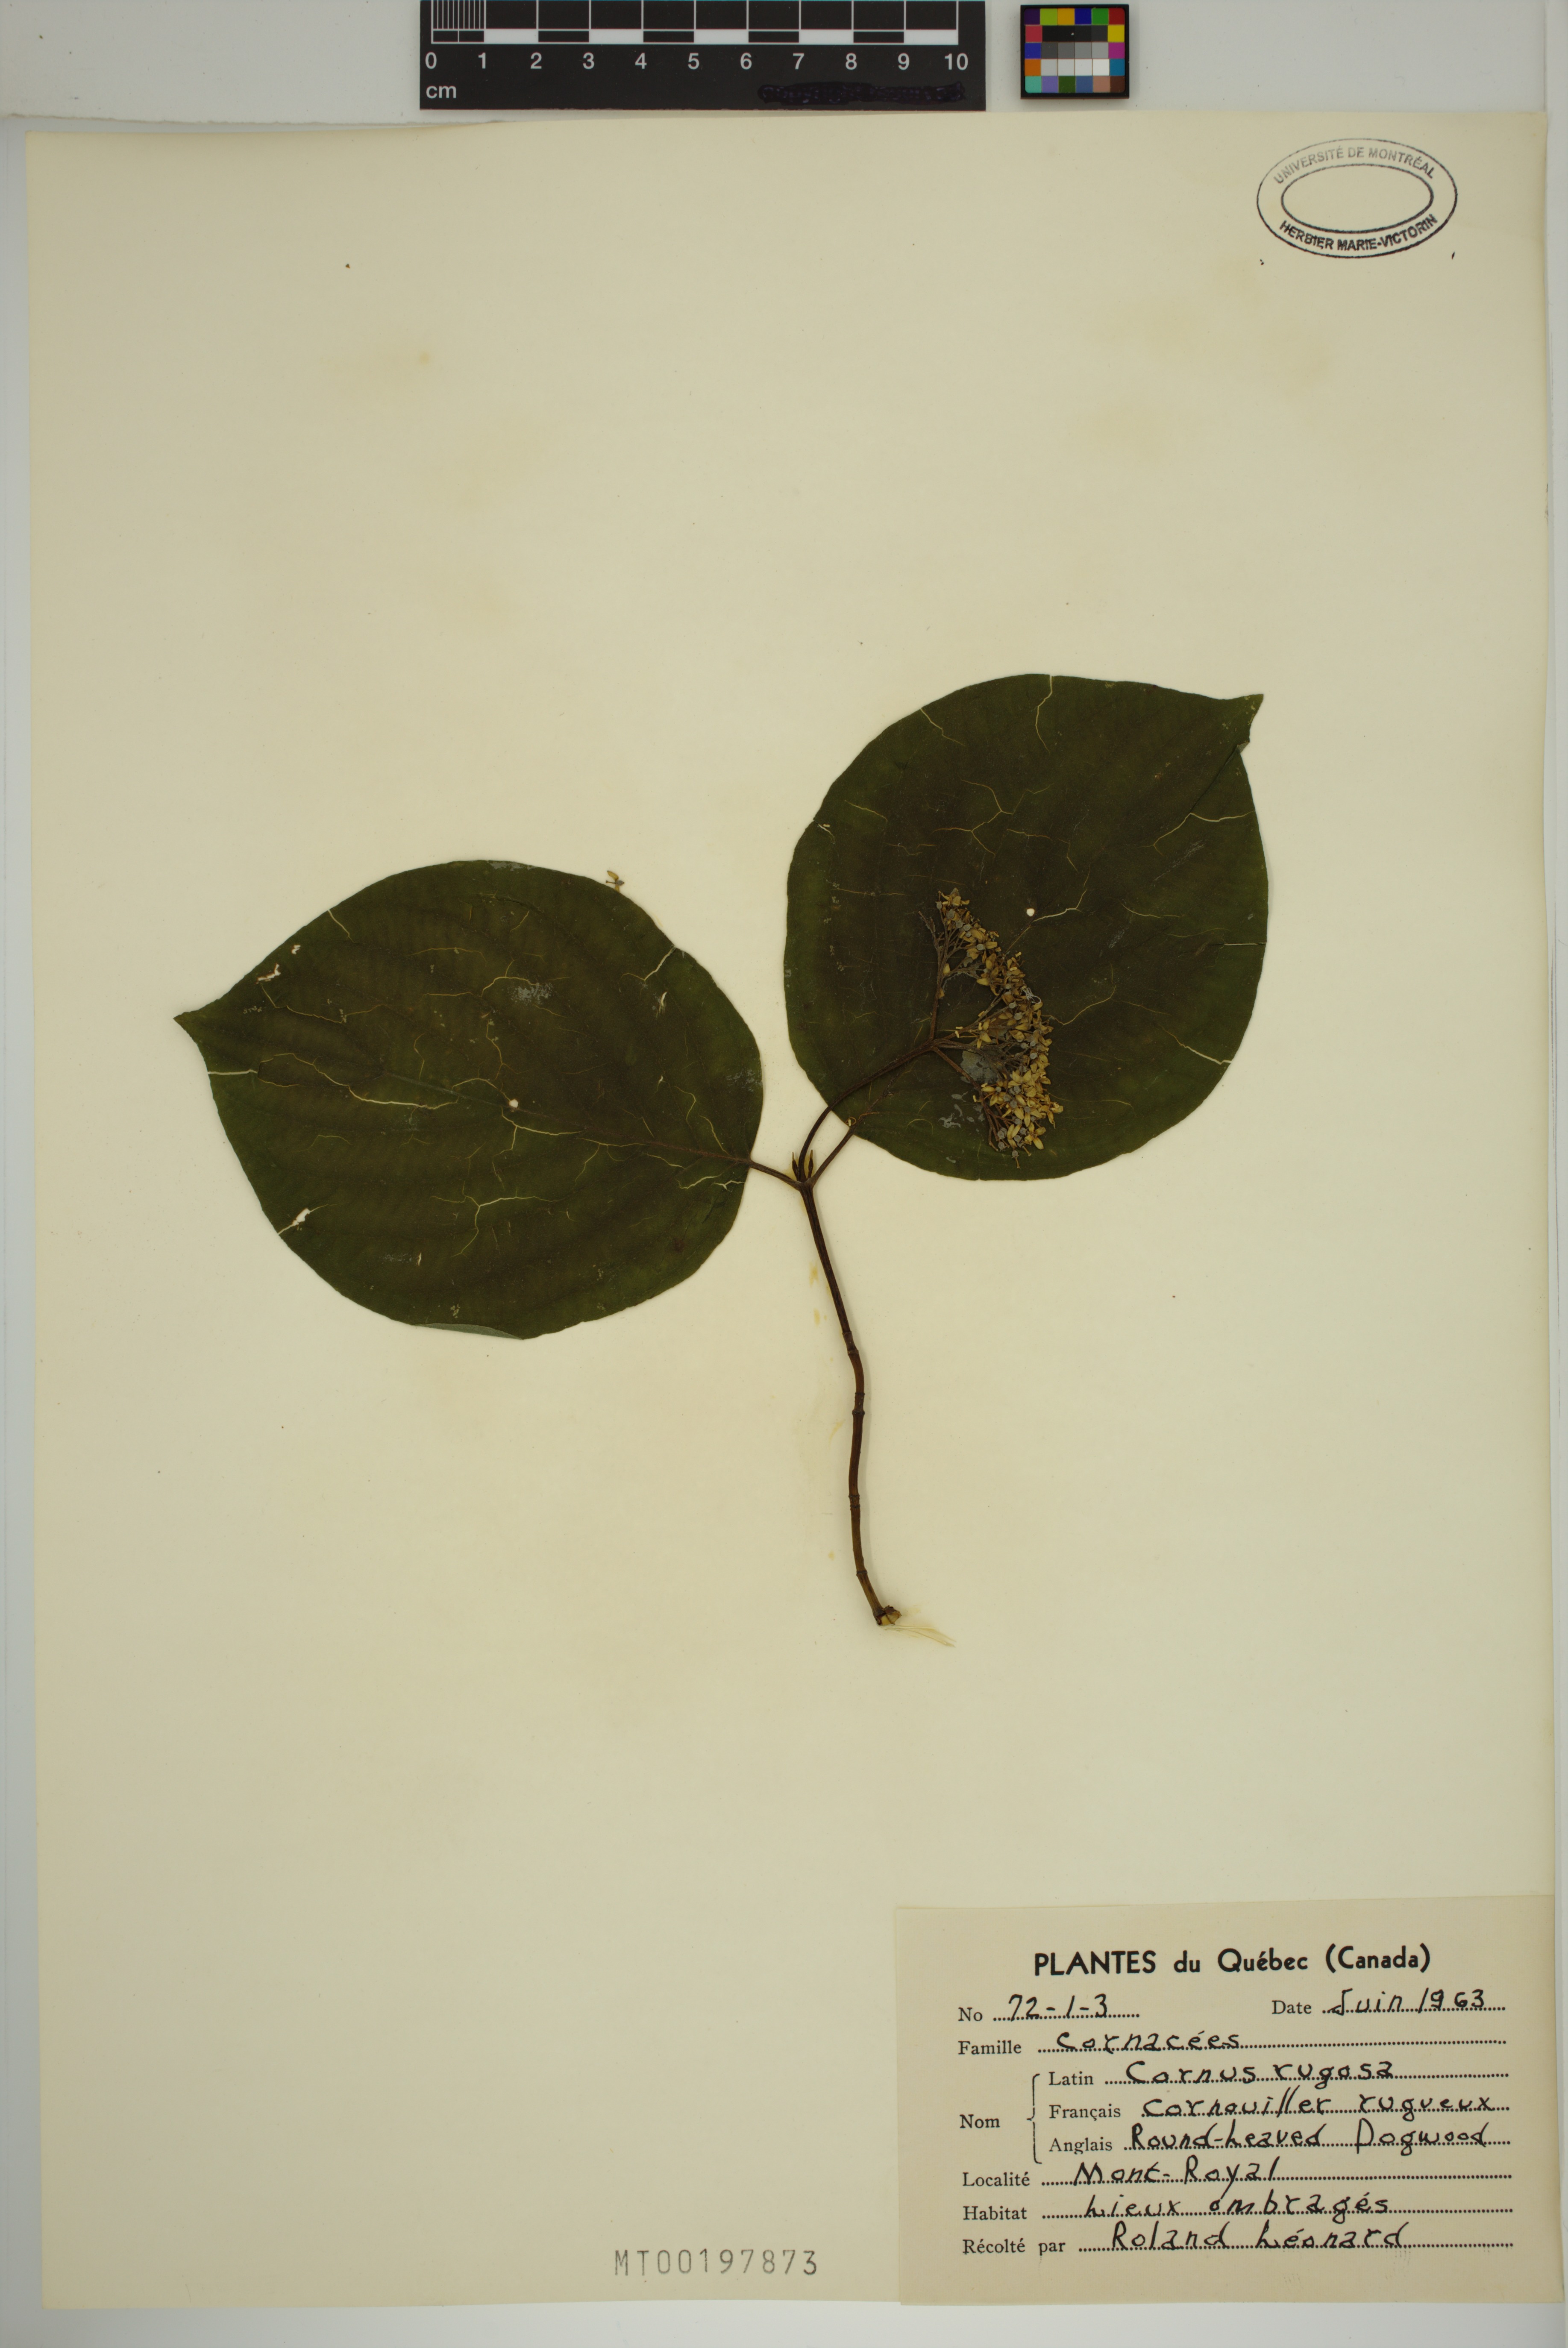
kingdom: Plantae
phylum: Tracheophyta
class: Magnoliopsida
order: Cornales
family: Cornaceae
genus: Cornus
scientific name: Cornus rugosa
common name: Round-leaf dogwood
